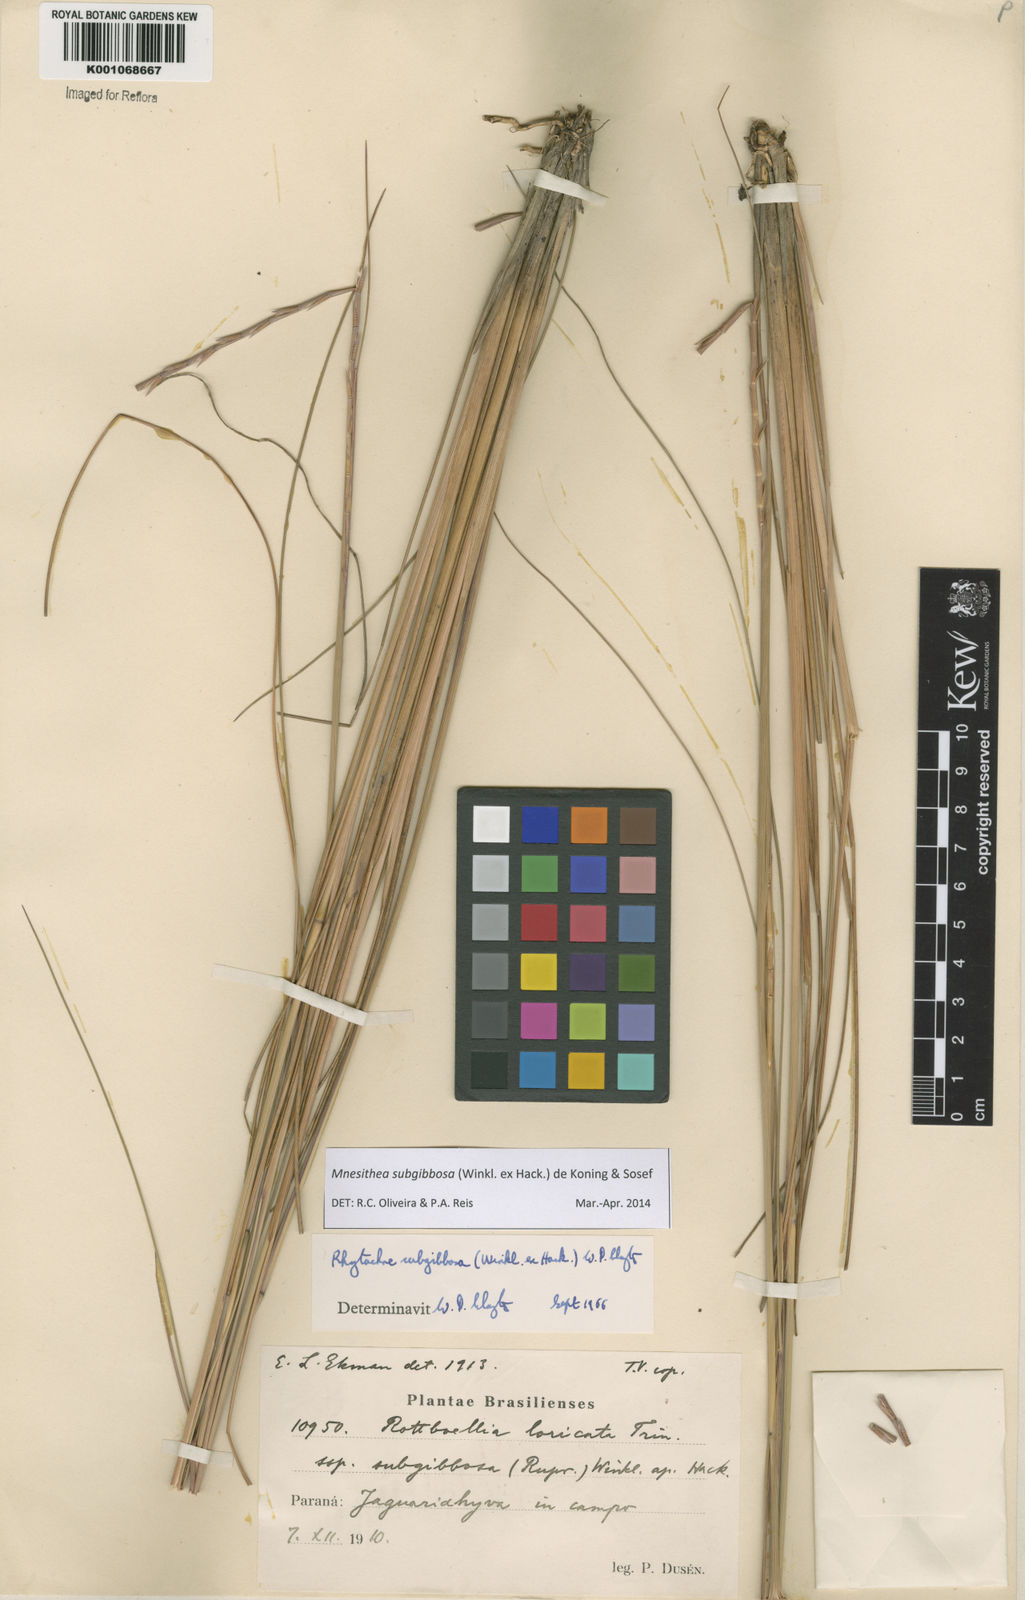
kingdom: Plantae
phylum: Tracheophyta
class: Liliopsida
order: Poales
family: Poaceae
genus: Rhytachne
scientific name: Rhytachne subgibbosa
